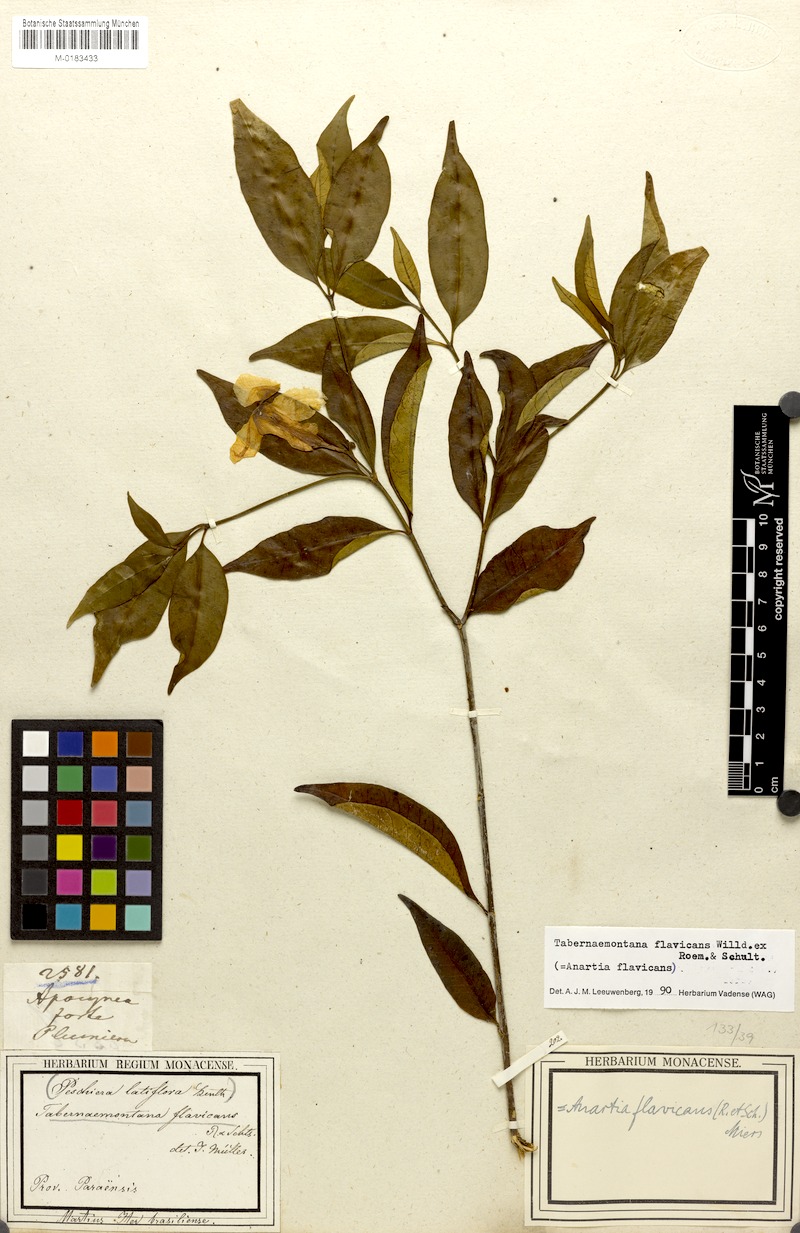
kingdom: Plantae
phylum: Tracheophyta
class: Magnoliopsida
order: Gentianales
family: Apocynaceae
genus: Tabernaemontana
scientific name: Tabernaemontana flavicans
